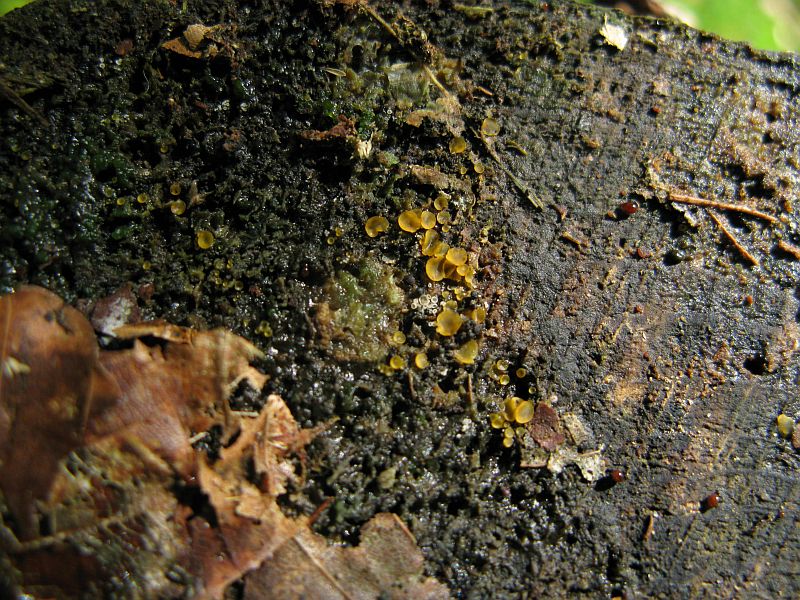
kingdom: Fungi
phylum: Ascomycota
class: Orbiliomycetes
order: Orbiliales
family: Orbiliaceae
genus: Orbilia
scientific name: Orbilia xanthostigma
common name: krumsporet voksskive
